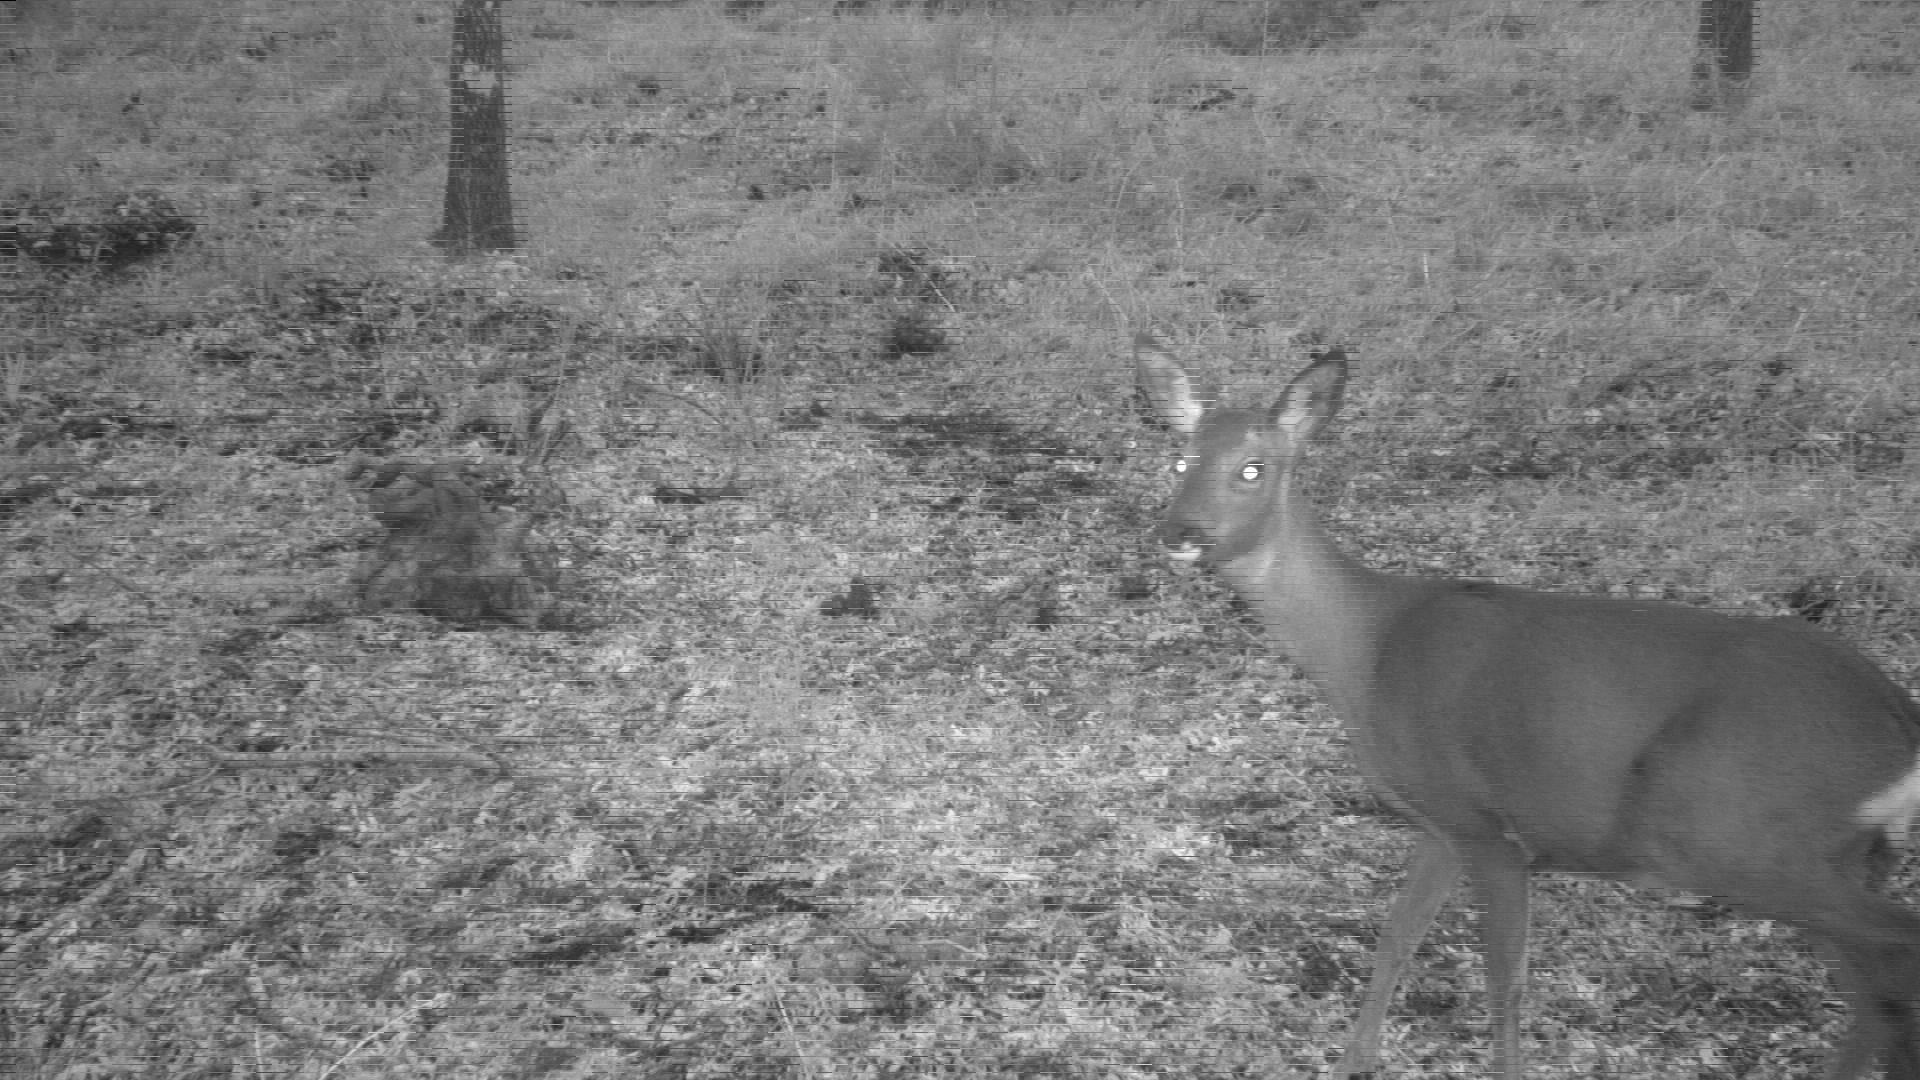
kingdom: Animalia
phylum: Chordata
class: Mammalia
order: Artiodactyla
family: Cervidae
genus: Capreolus
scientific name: Capreolus capreolus
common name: Western roe deer
